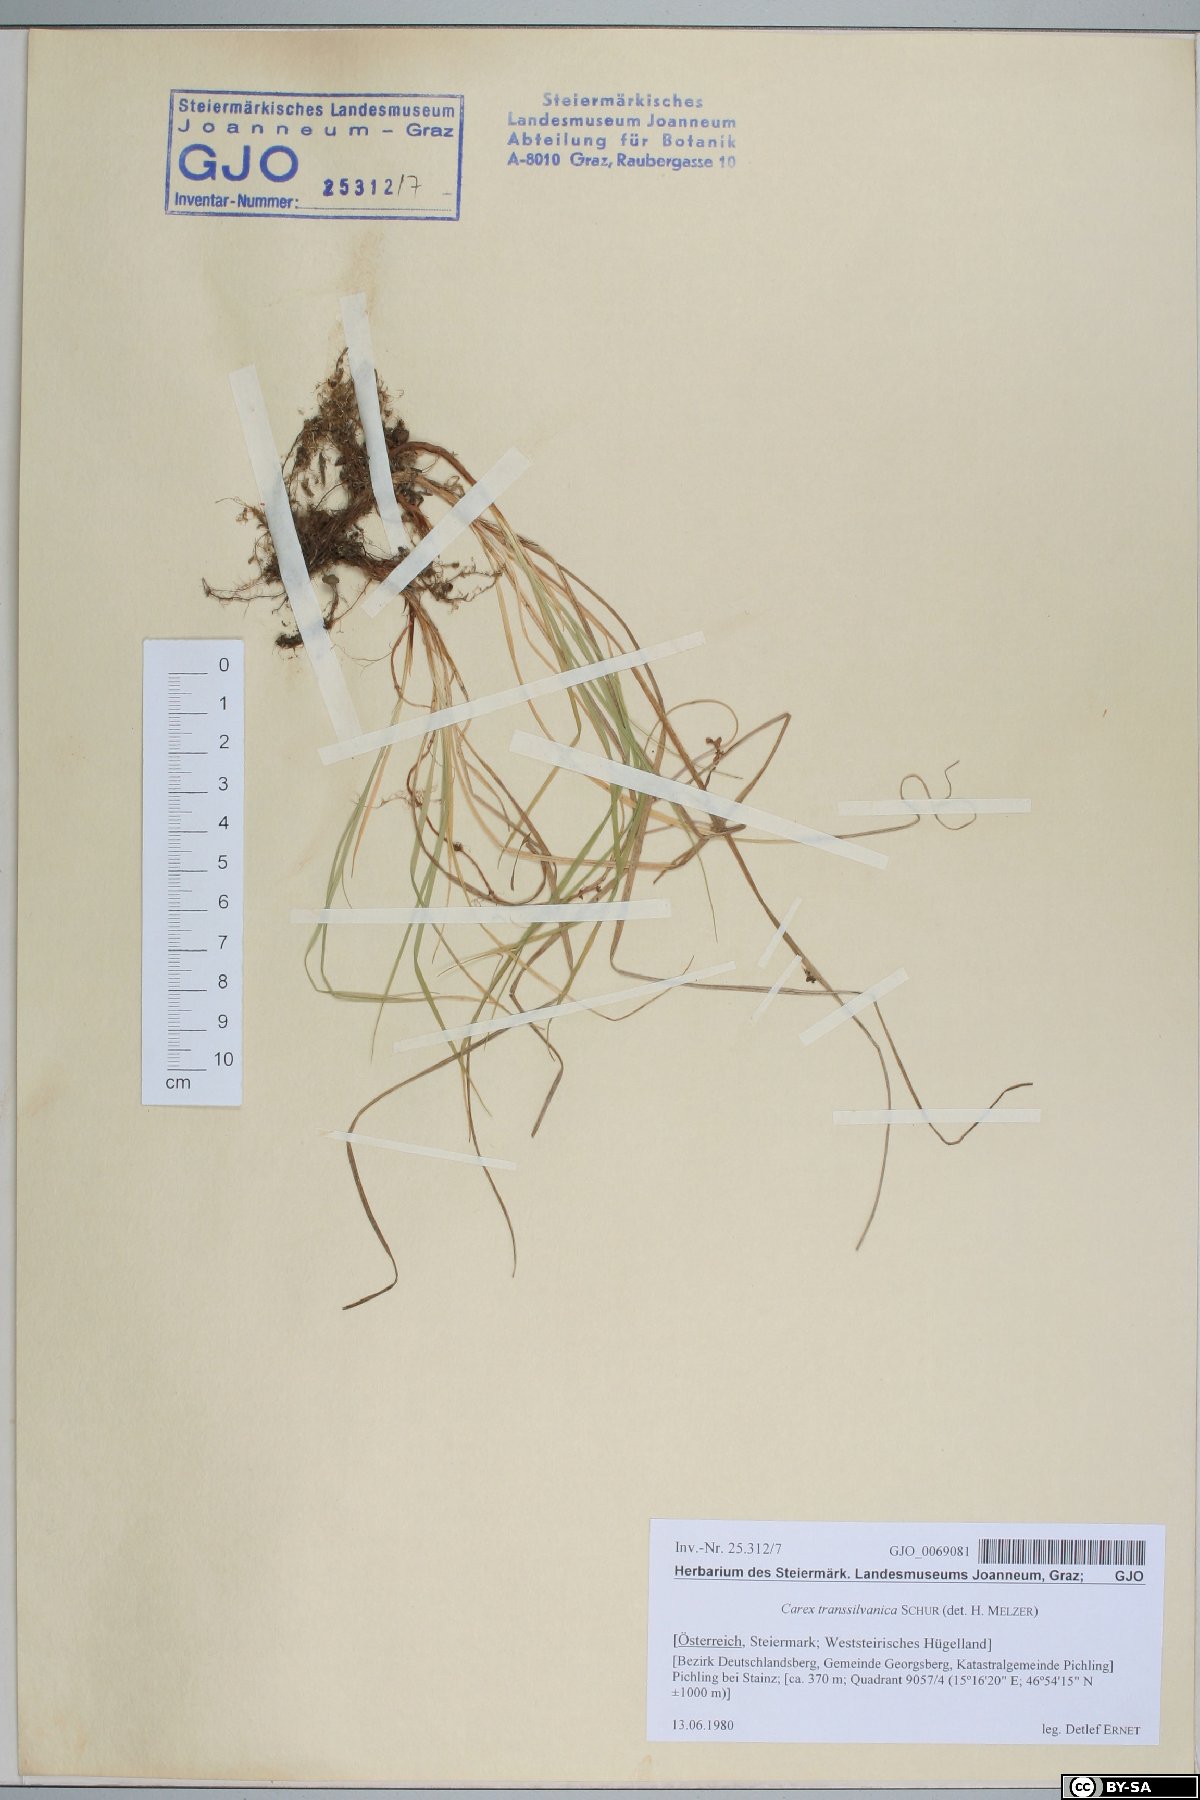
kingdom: Plantae
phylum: Tracheophyta
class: Liliopsida
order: Poales
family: Cyperaceae
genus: Carex
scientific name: Carex depressa
